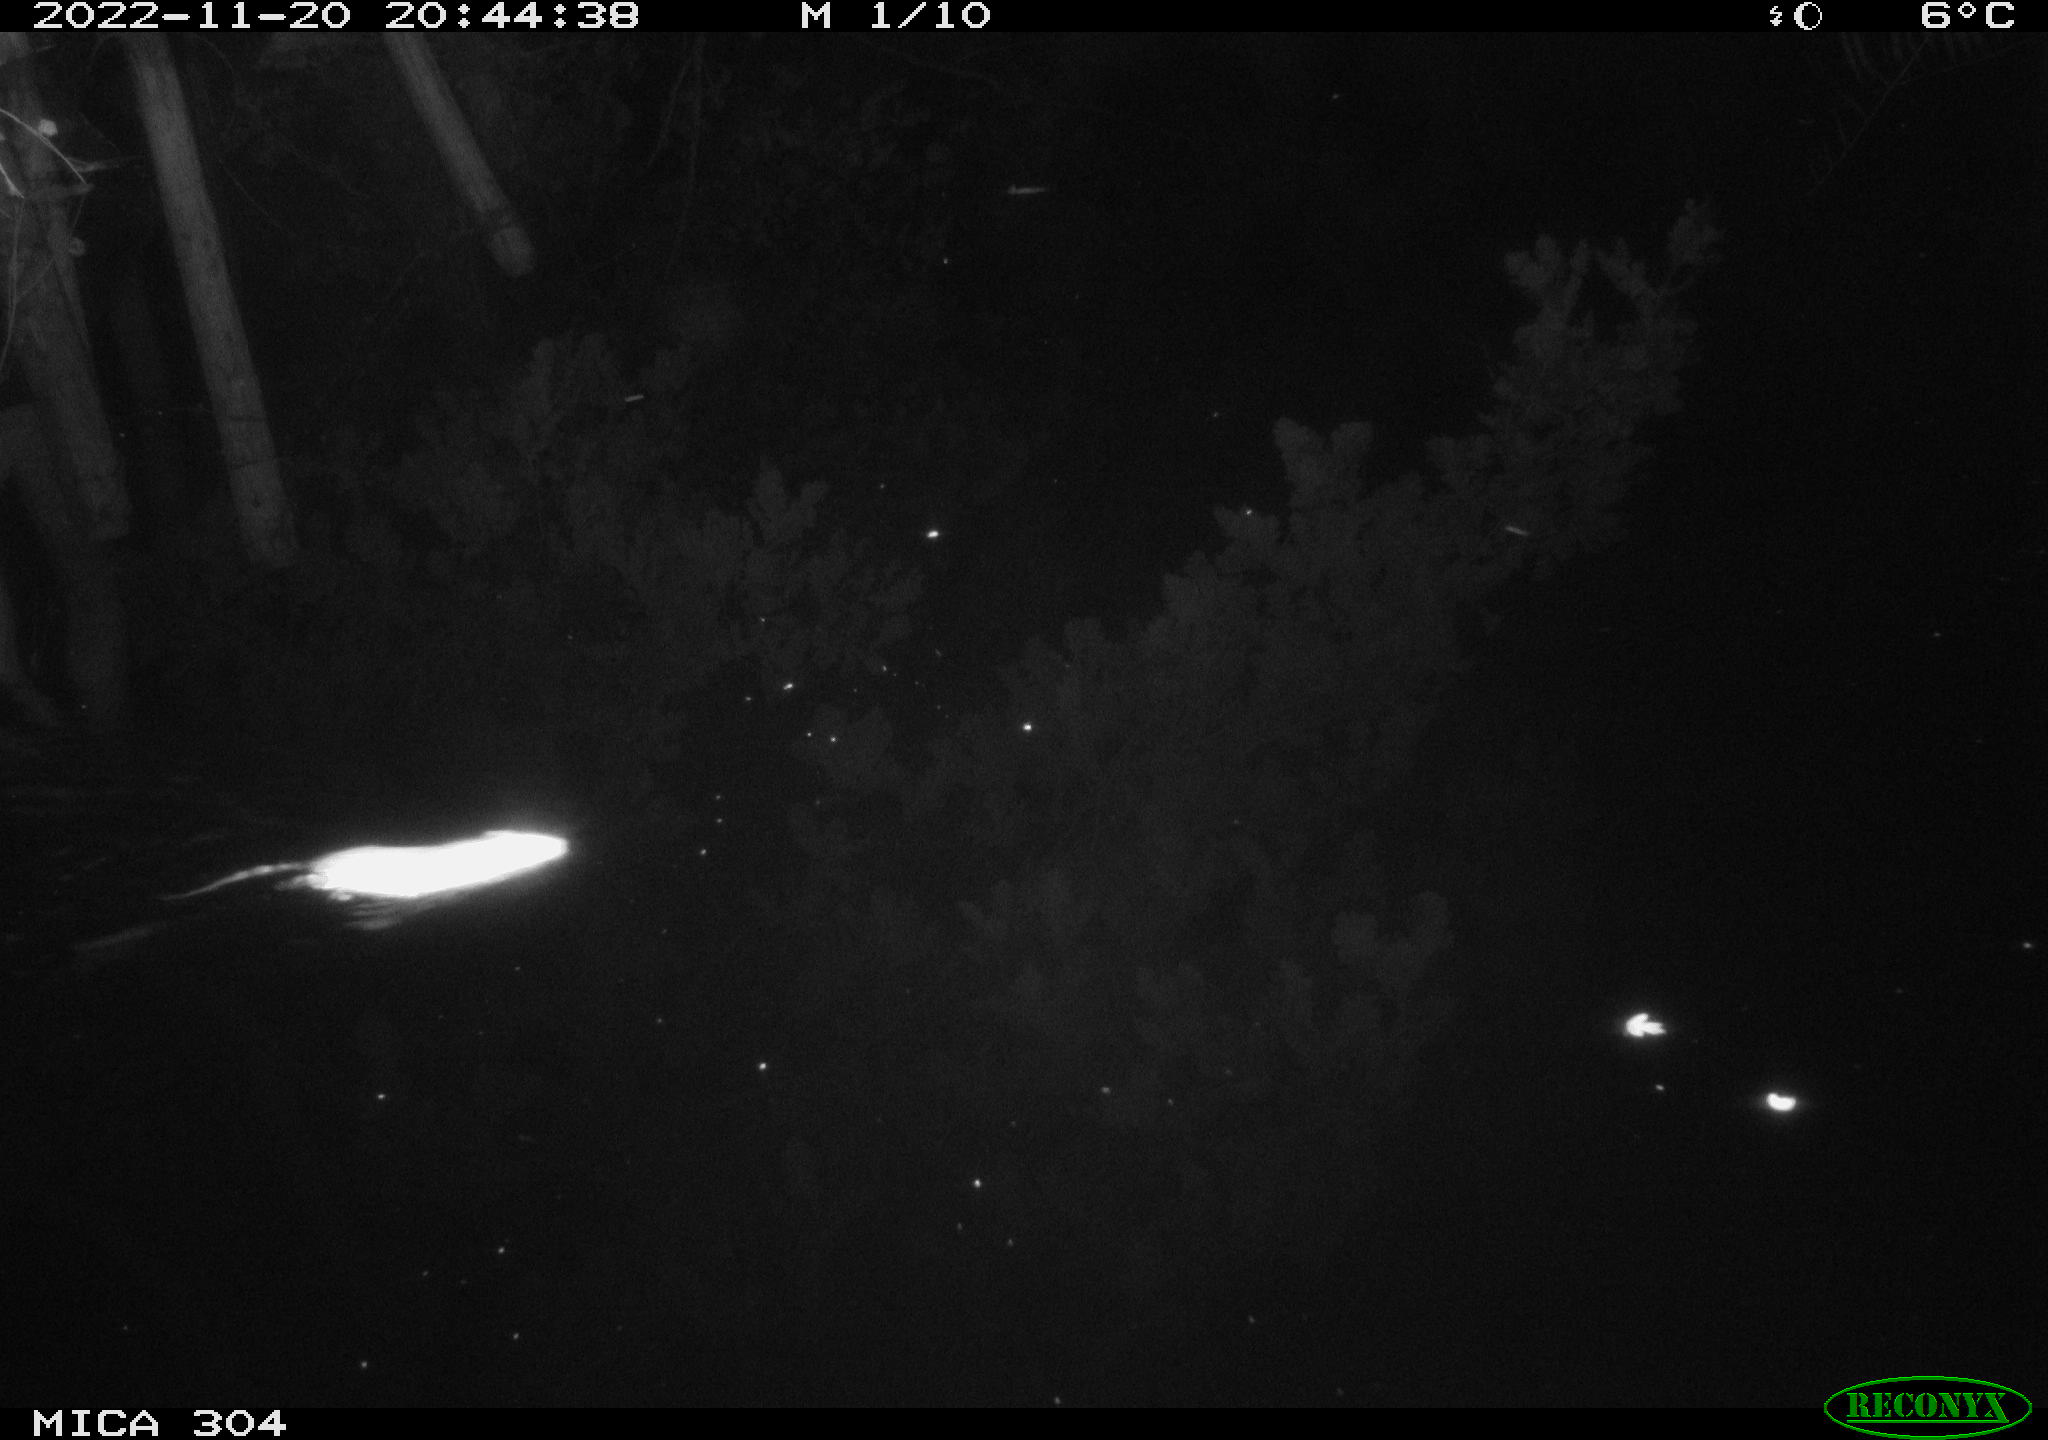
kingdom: Animalia
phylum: Chordata
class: Mammalia
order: Rodentia
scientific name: Rodentia
